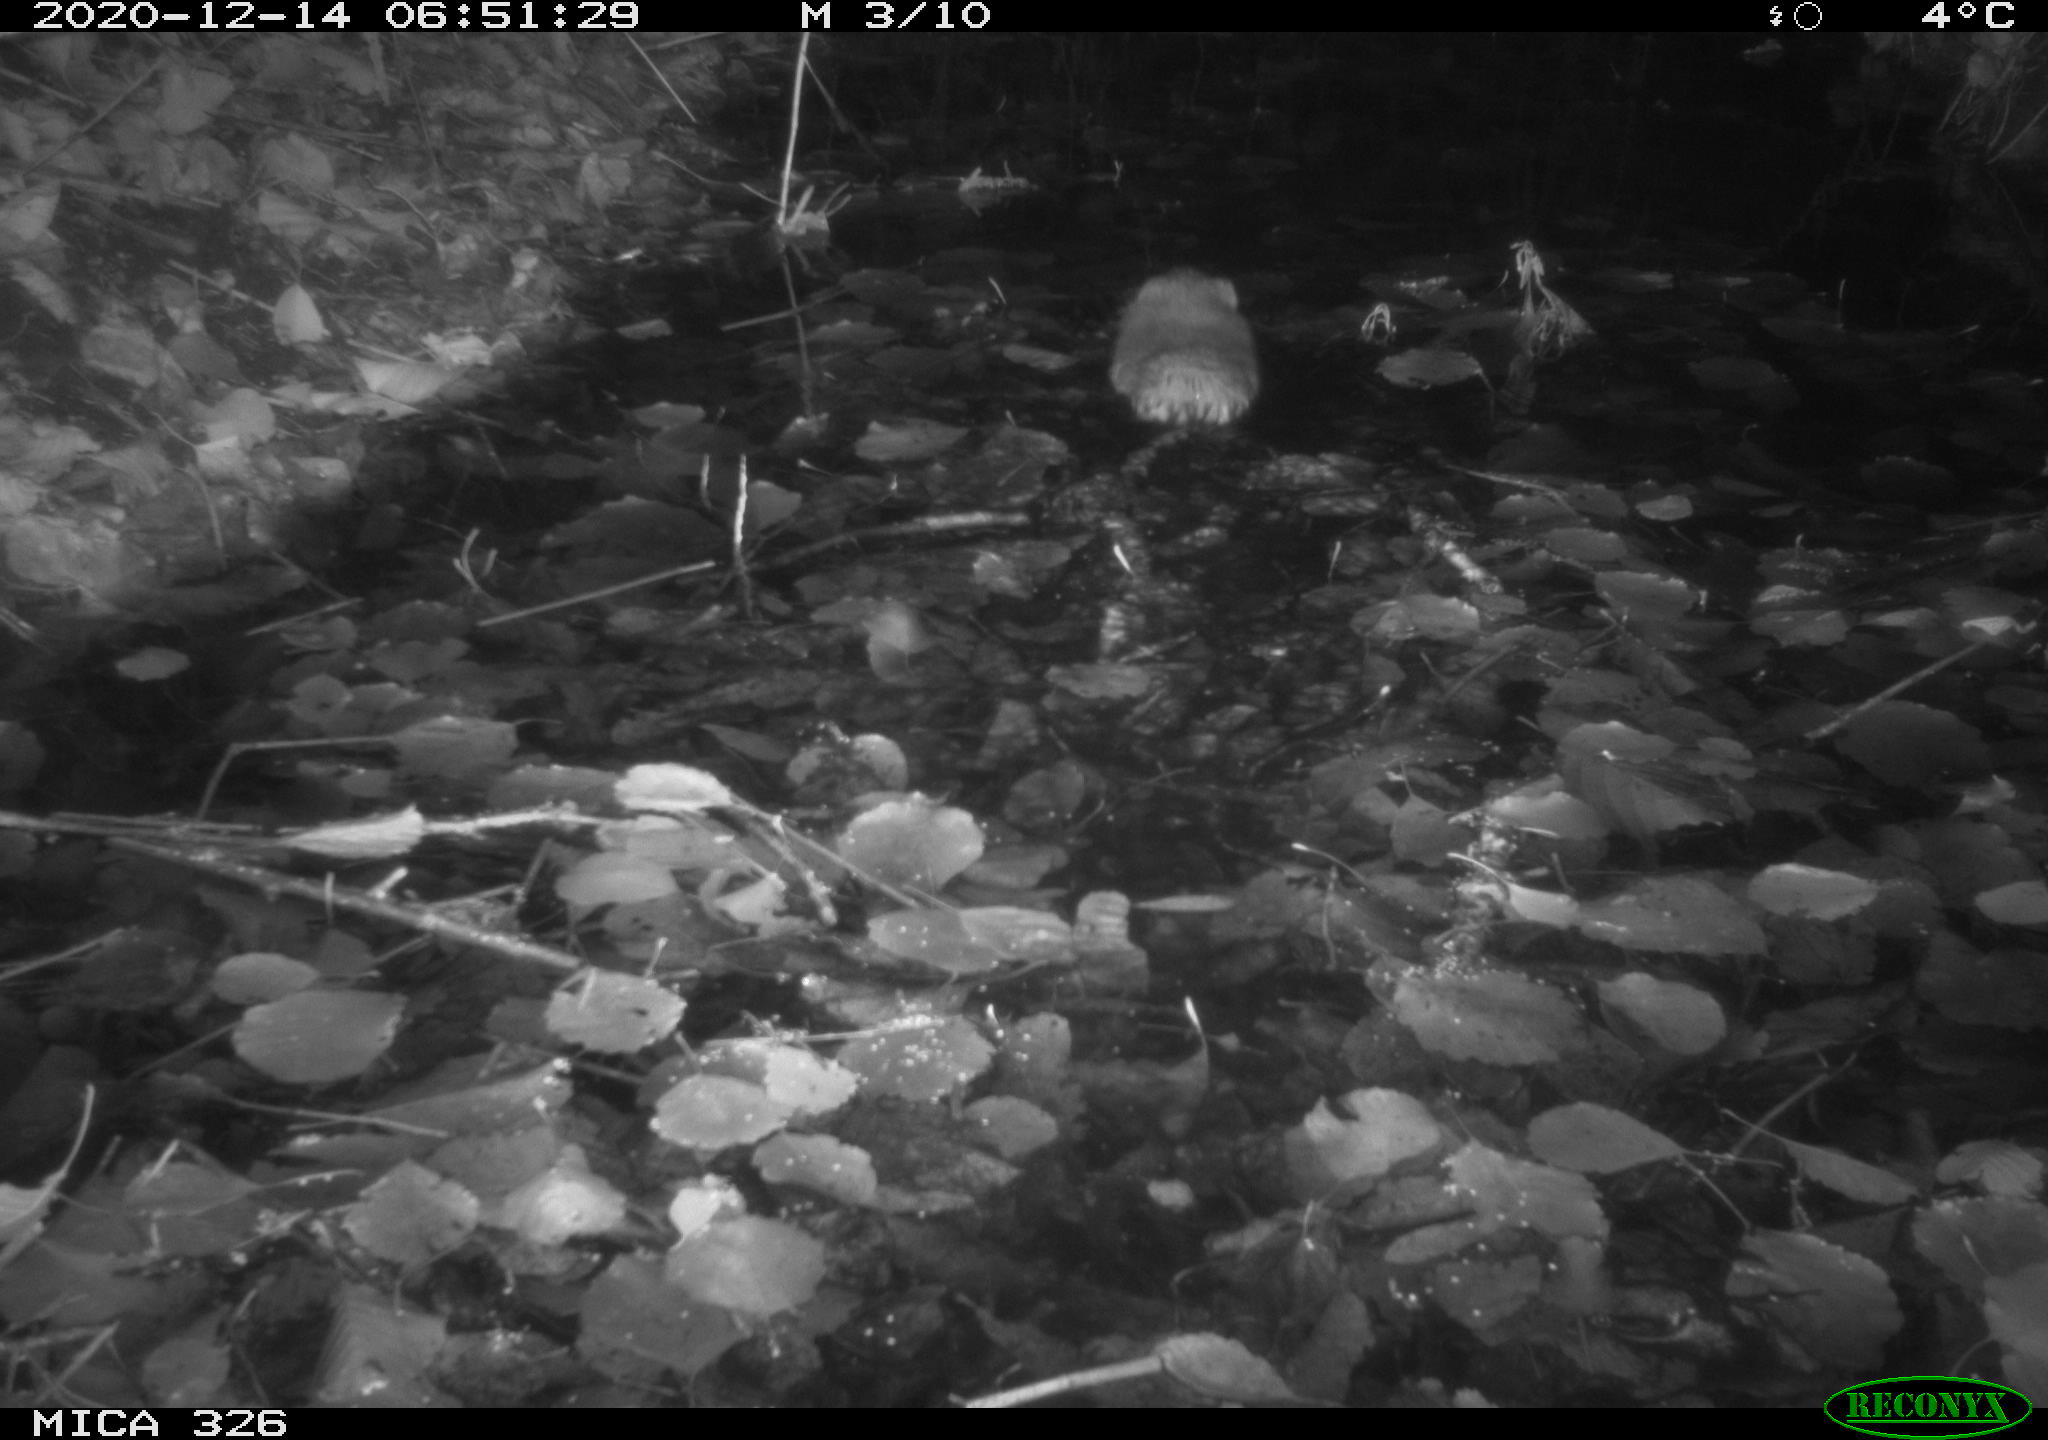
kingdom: Animalia
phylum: Chordata
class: Mammalia
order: Rodentia
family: Cricetidae
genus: Ondatra
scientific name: Ondatra zibethicus
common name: Muskrat
